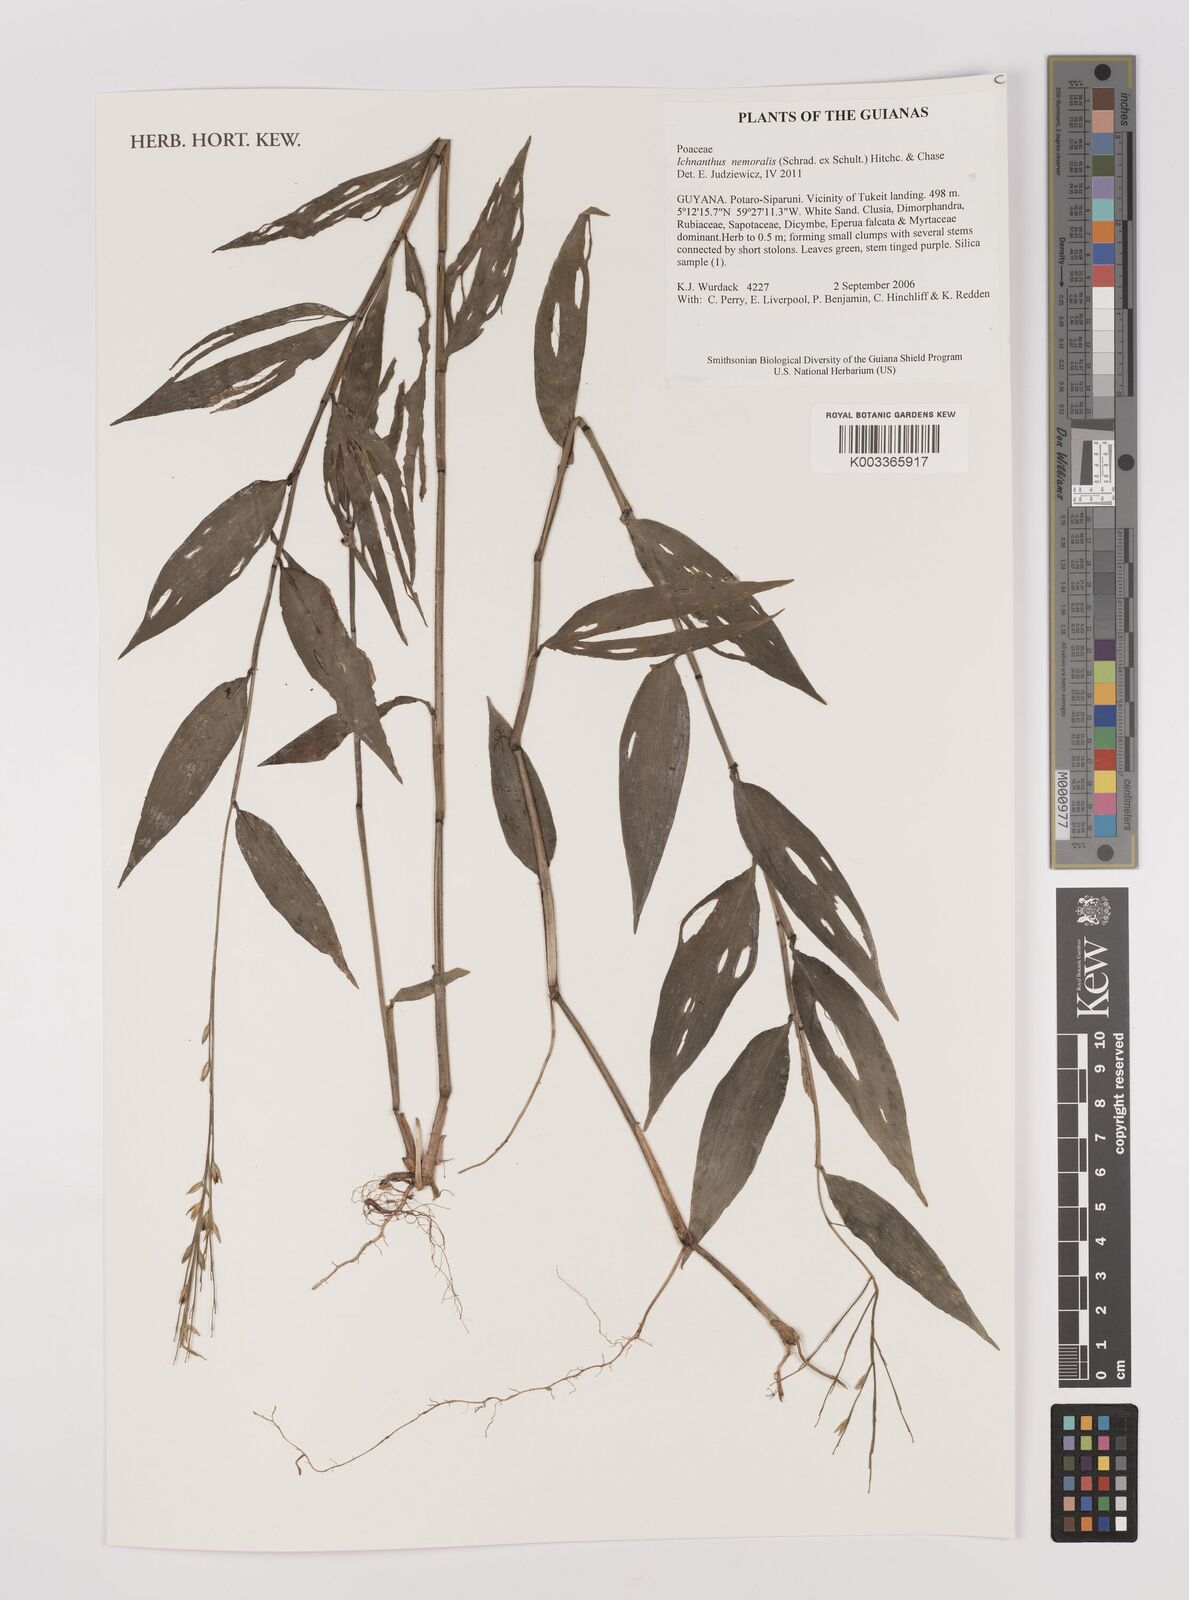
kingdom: Plantae
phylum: Tracheophyta
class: Liliopsida
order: Poales
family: Poaceae
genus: Ichnanthus
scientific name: Ichnanthus nemoralis
